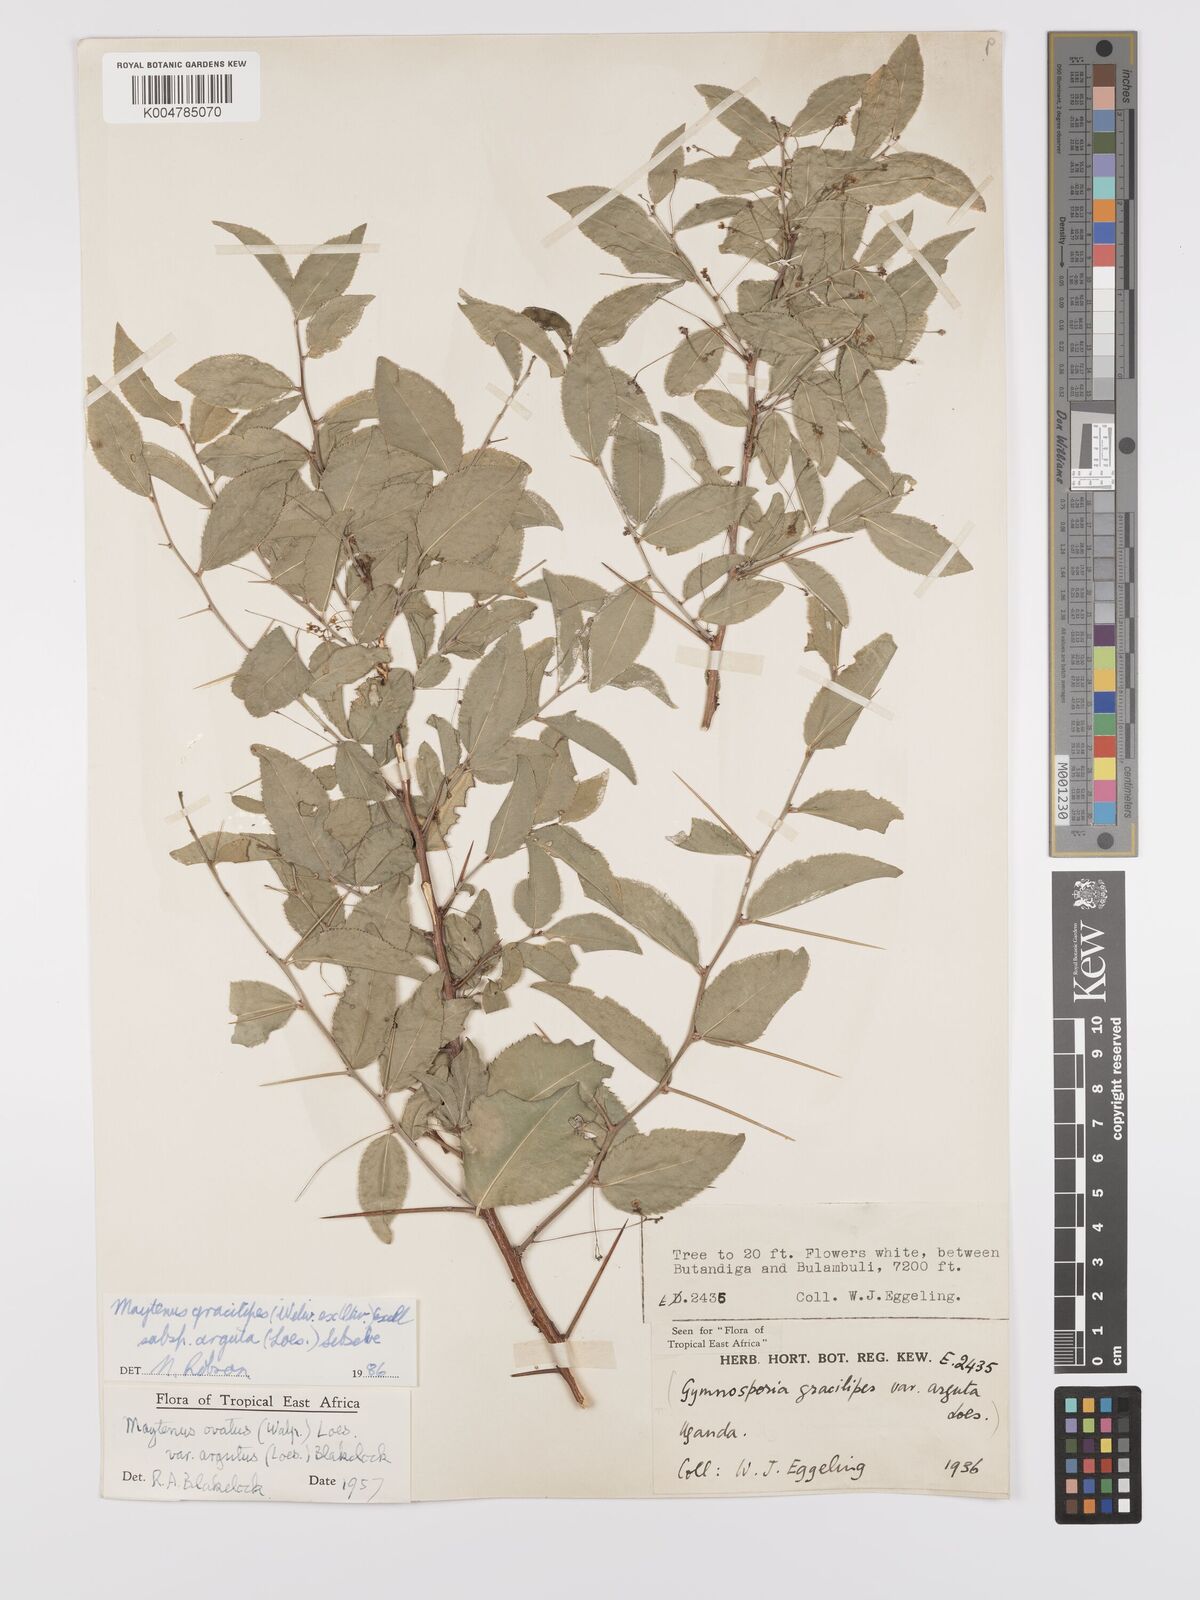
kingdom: Plantae
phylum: Tracheophyta
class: Magnoliopsida
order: Celastrales
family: Celastraceae
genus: Gymnosporia
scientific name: Gymnosporia gracilipes
